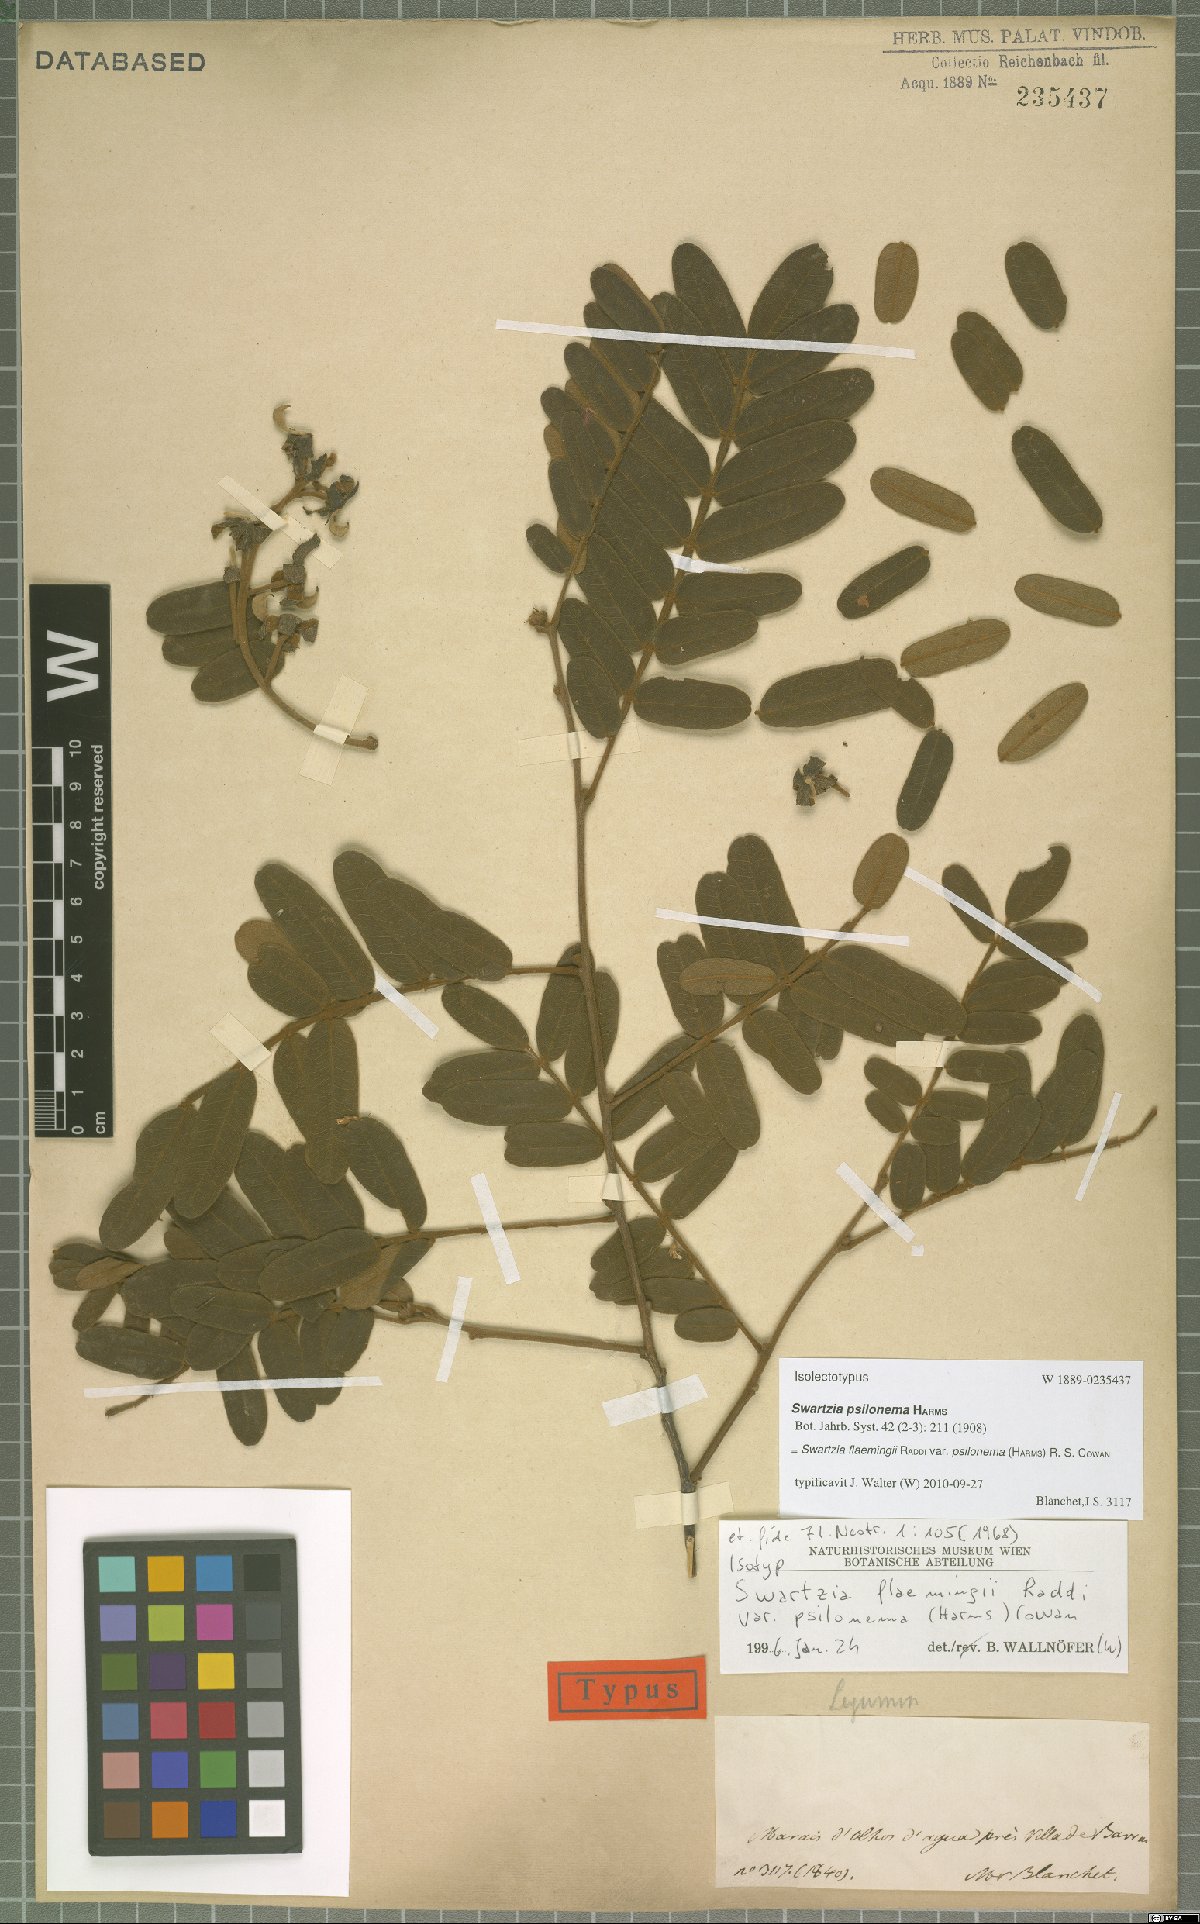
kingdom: Plantae
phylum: Tracheophyta
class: Magnoliopsida
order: Fabales
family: Fabaceae
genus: Swartzia
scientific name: Swartzia psilonema
